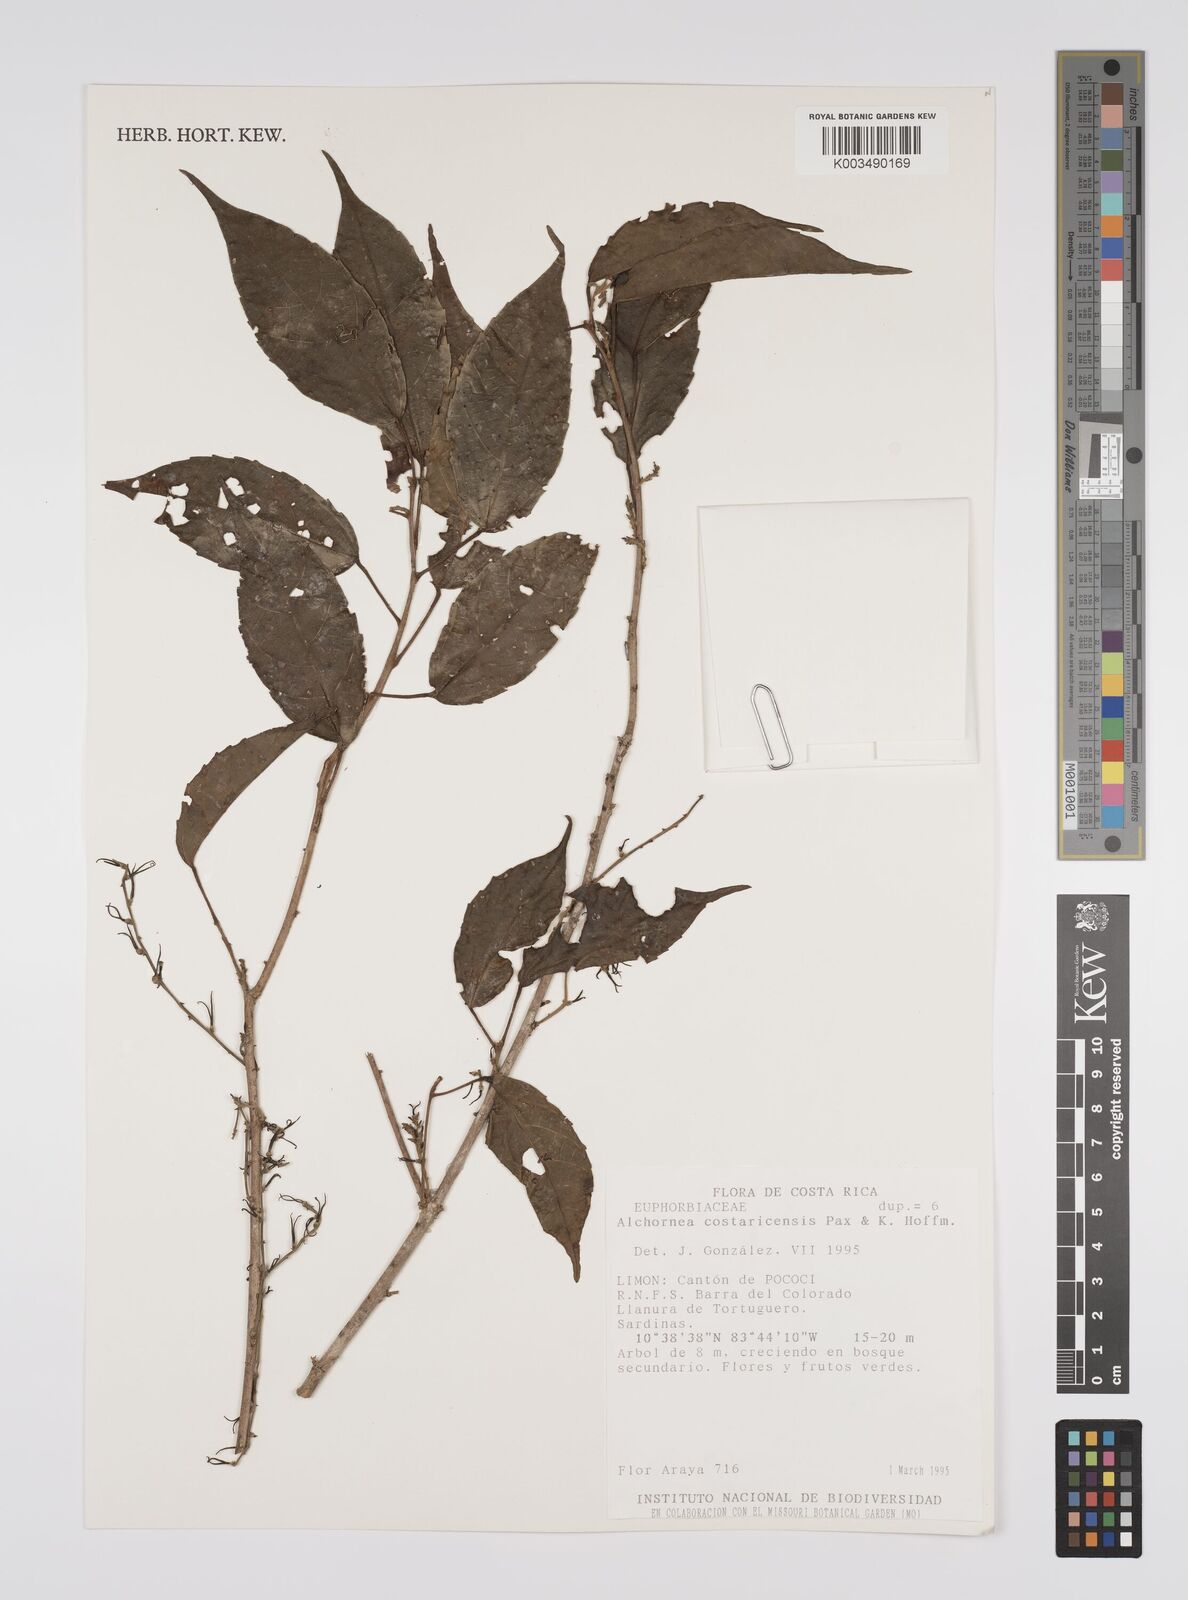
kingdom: Plantae
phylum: Tracheophyta
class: Magnoliopsida
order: Malpighiales
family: Euphorbiaceae
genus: Alchornea
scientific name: Alchornea costaricensis
